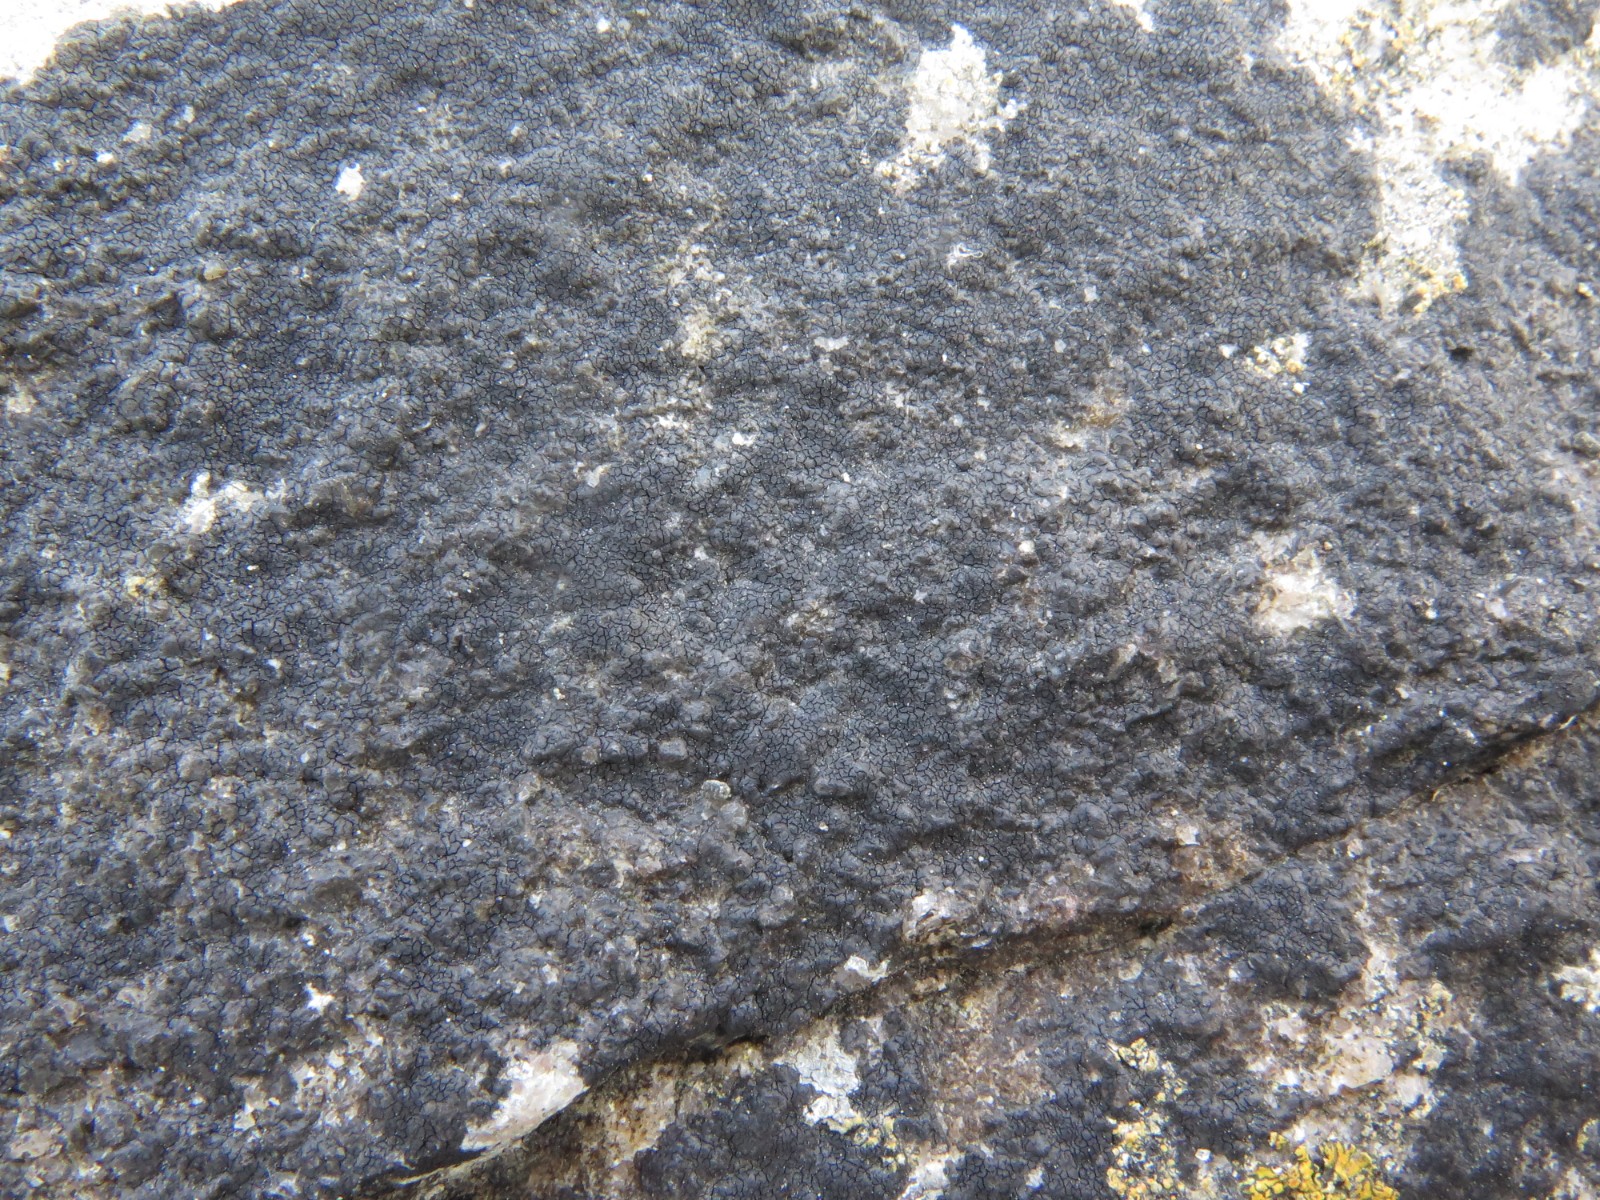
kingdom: Fungi
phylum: Ascomycota
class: Eurotiomycetes
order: Verrucariales
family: Verrucariaceae
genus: Hydropunctaria
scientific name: Hydropunctaria maura
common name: strand-vortelav
